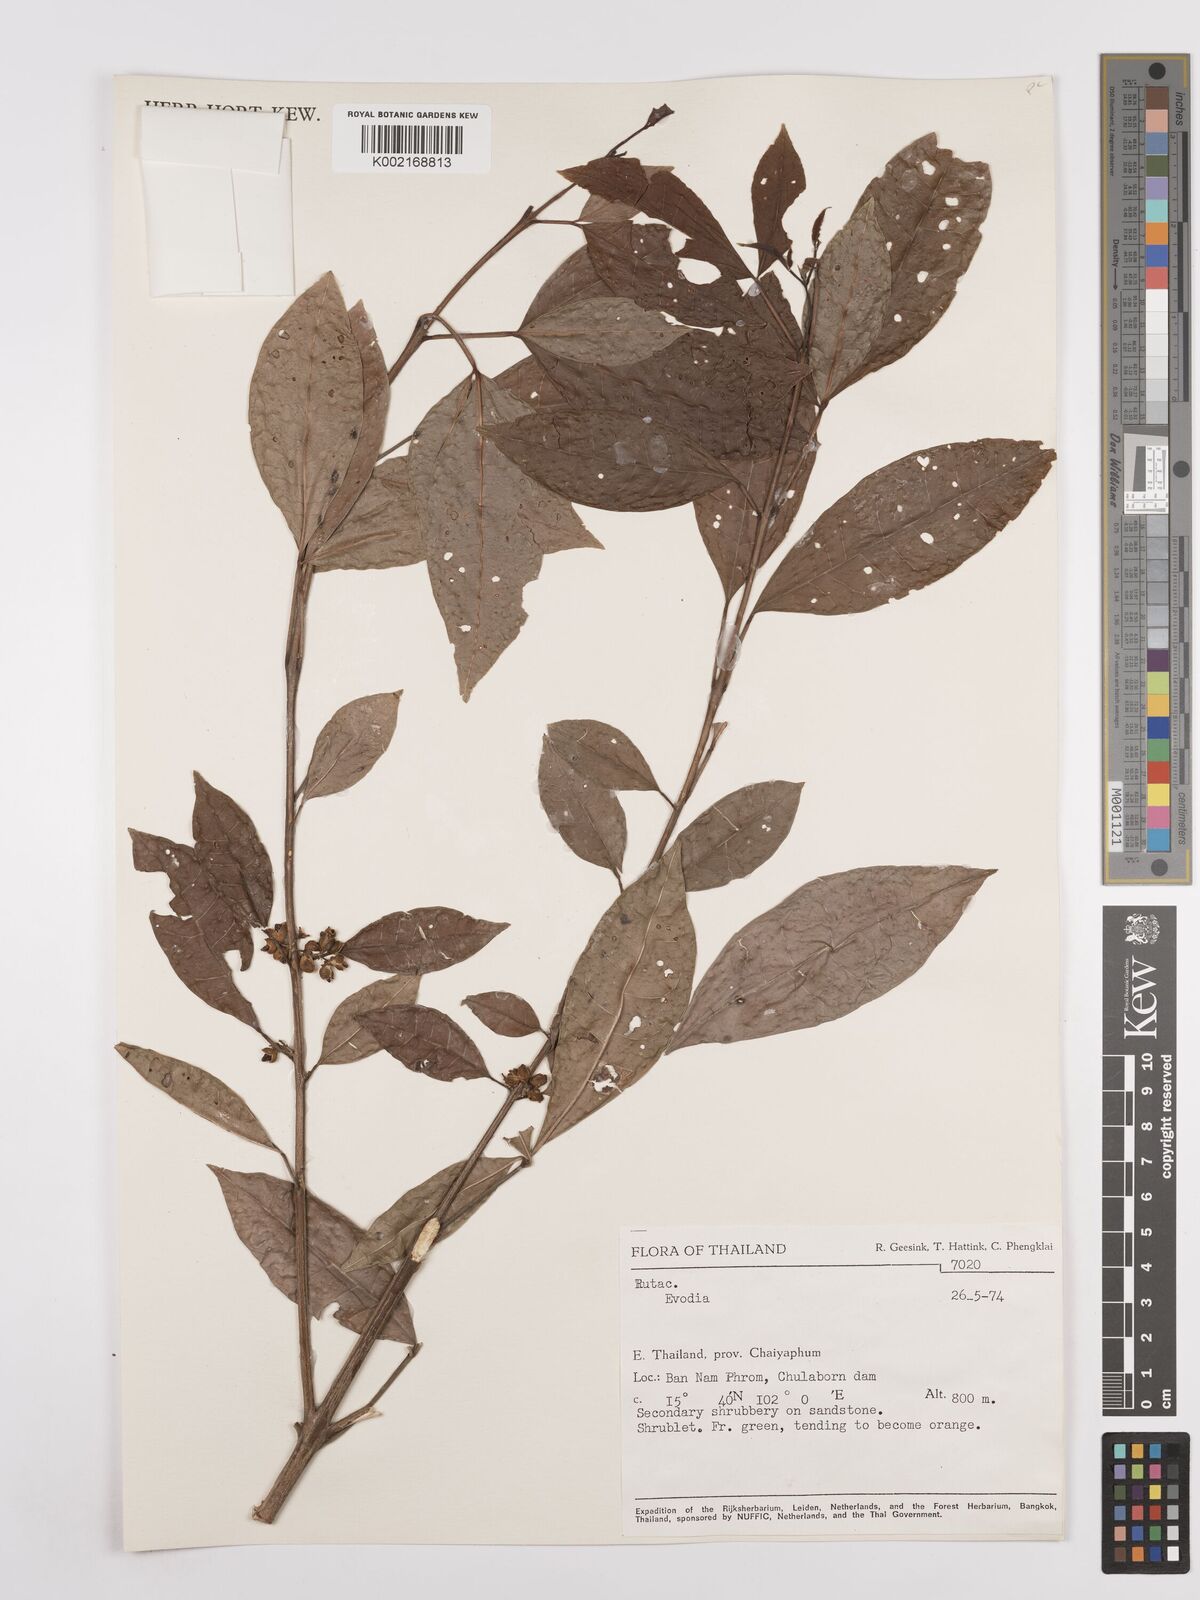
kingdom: Plantae
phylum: Tracheophyta
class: Magnoliopsida
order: Sapindales
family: Rutaceae
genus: Euodia
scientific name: Euodia
